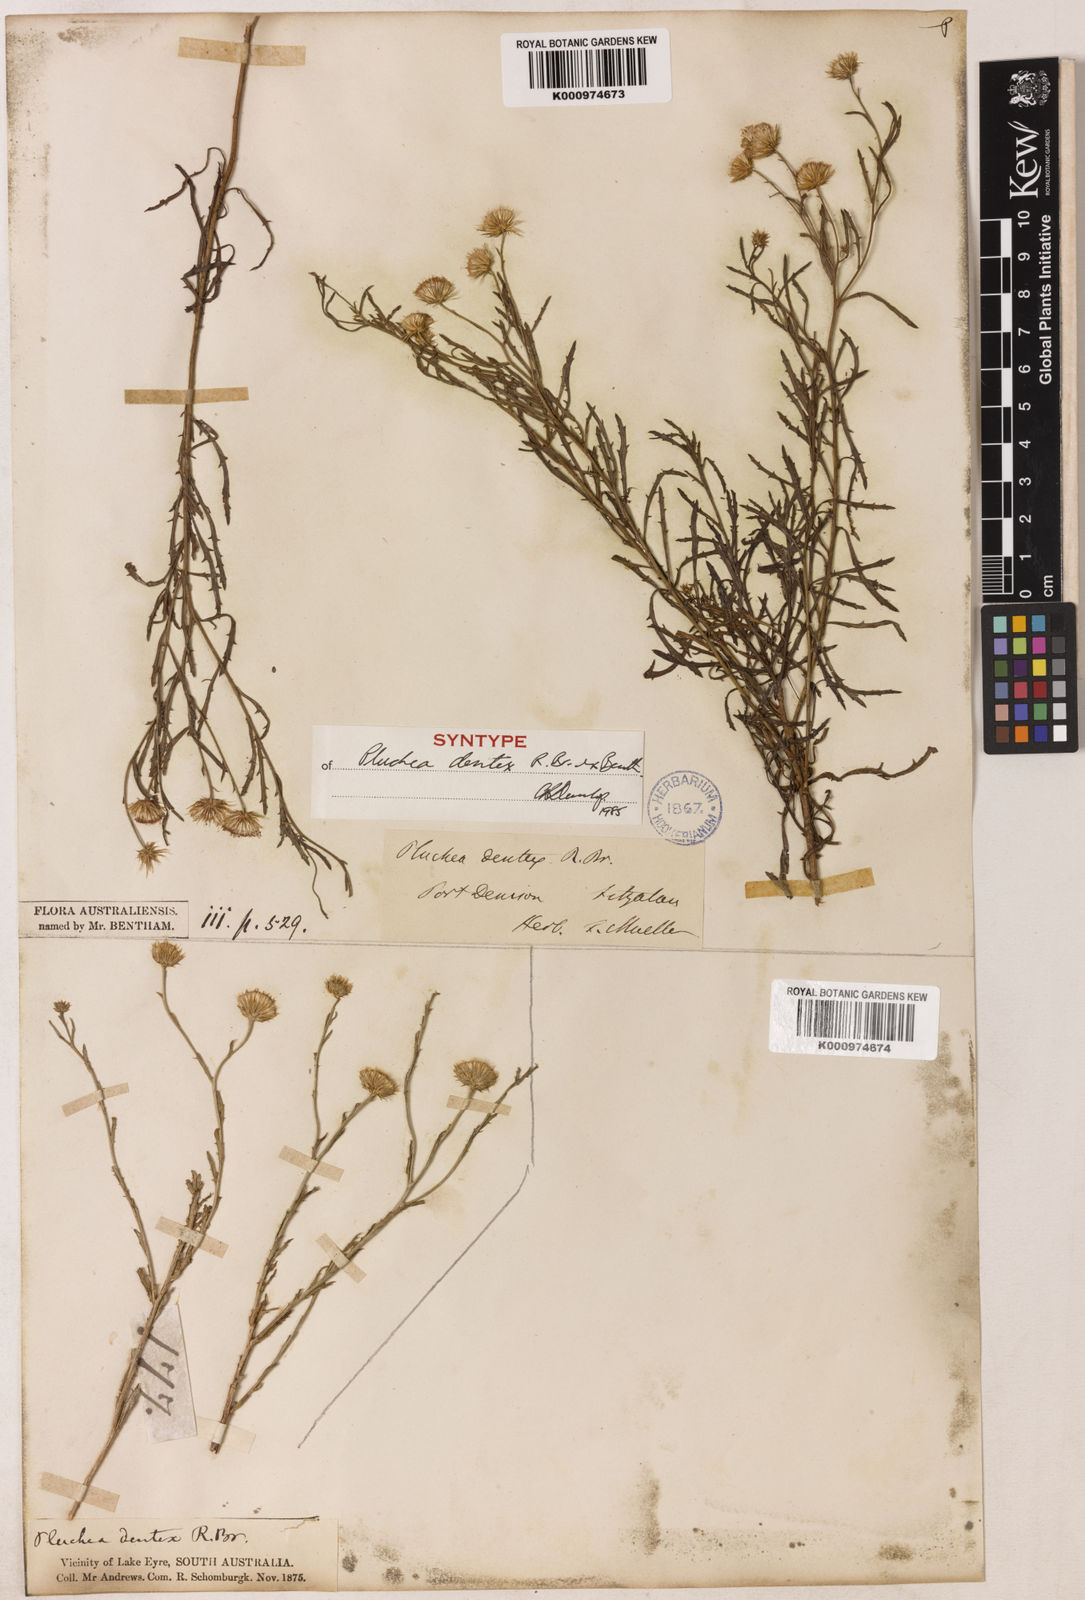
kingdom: Plantae
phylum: Tracheophyta
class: Magnoliopsida
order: Asterales
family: Asteraceae
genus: Pluchea
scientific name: Pluchea dentex
